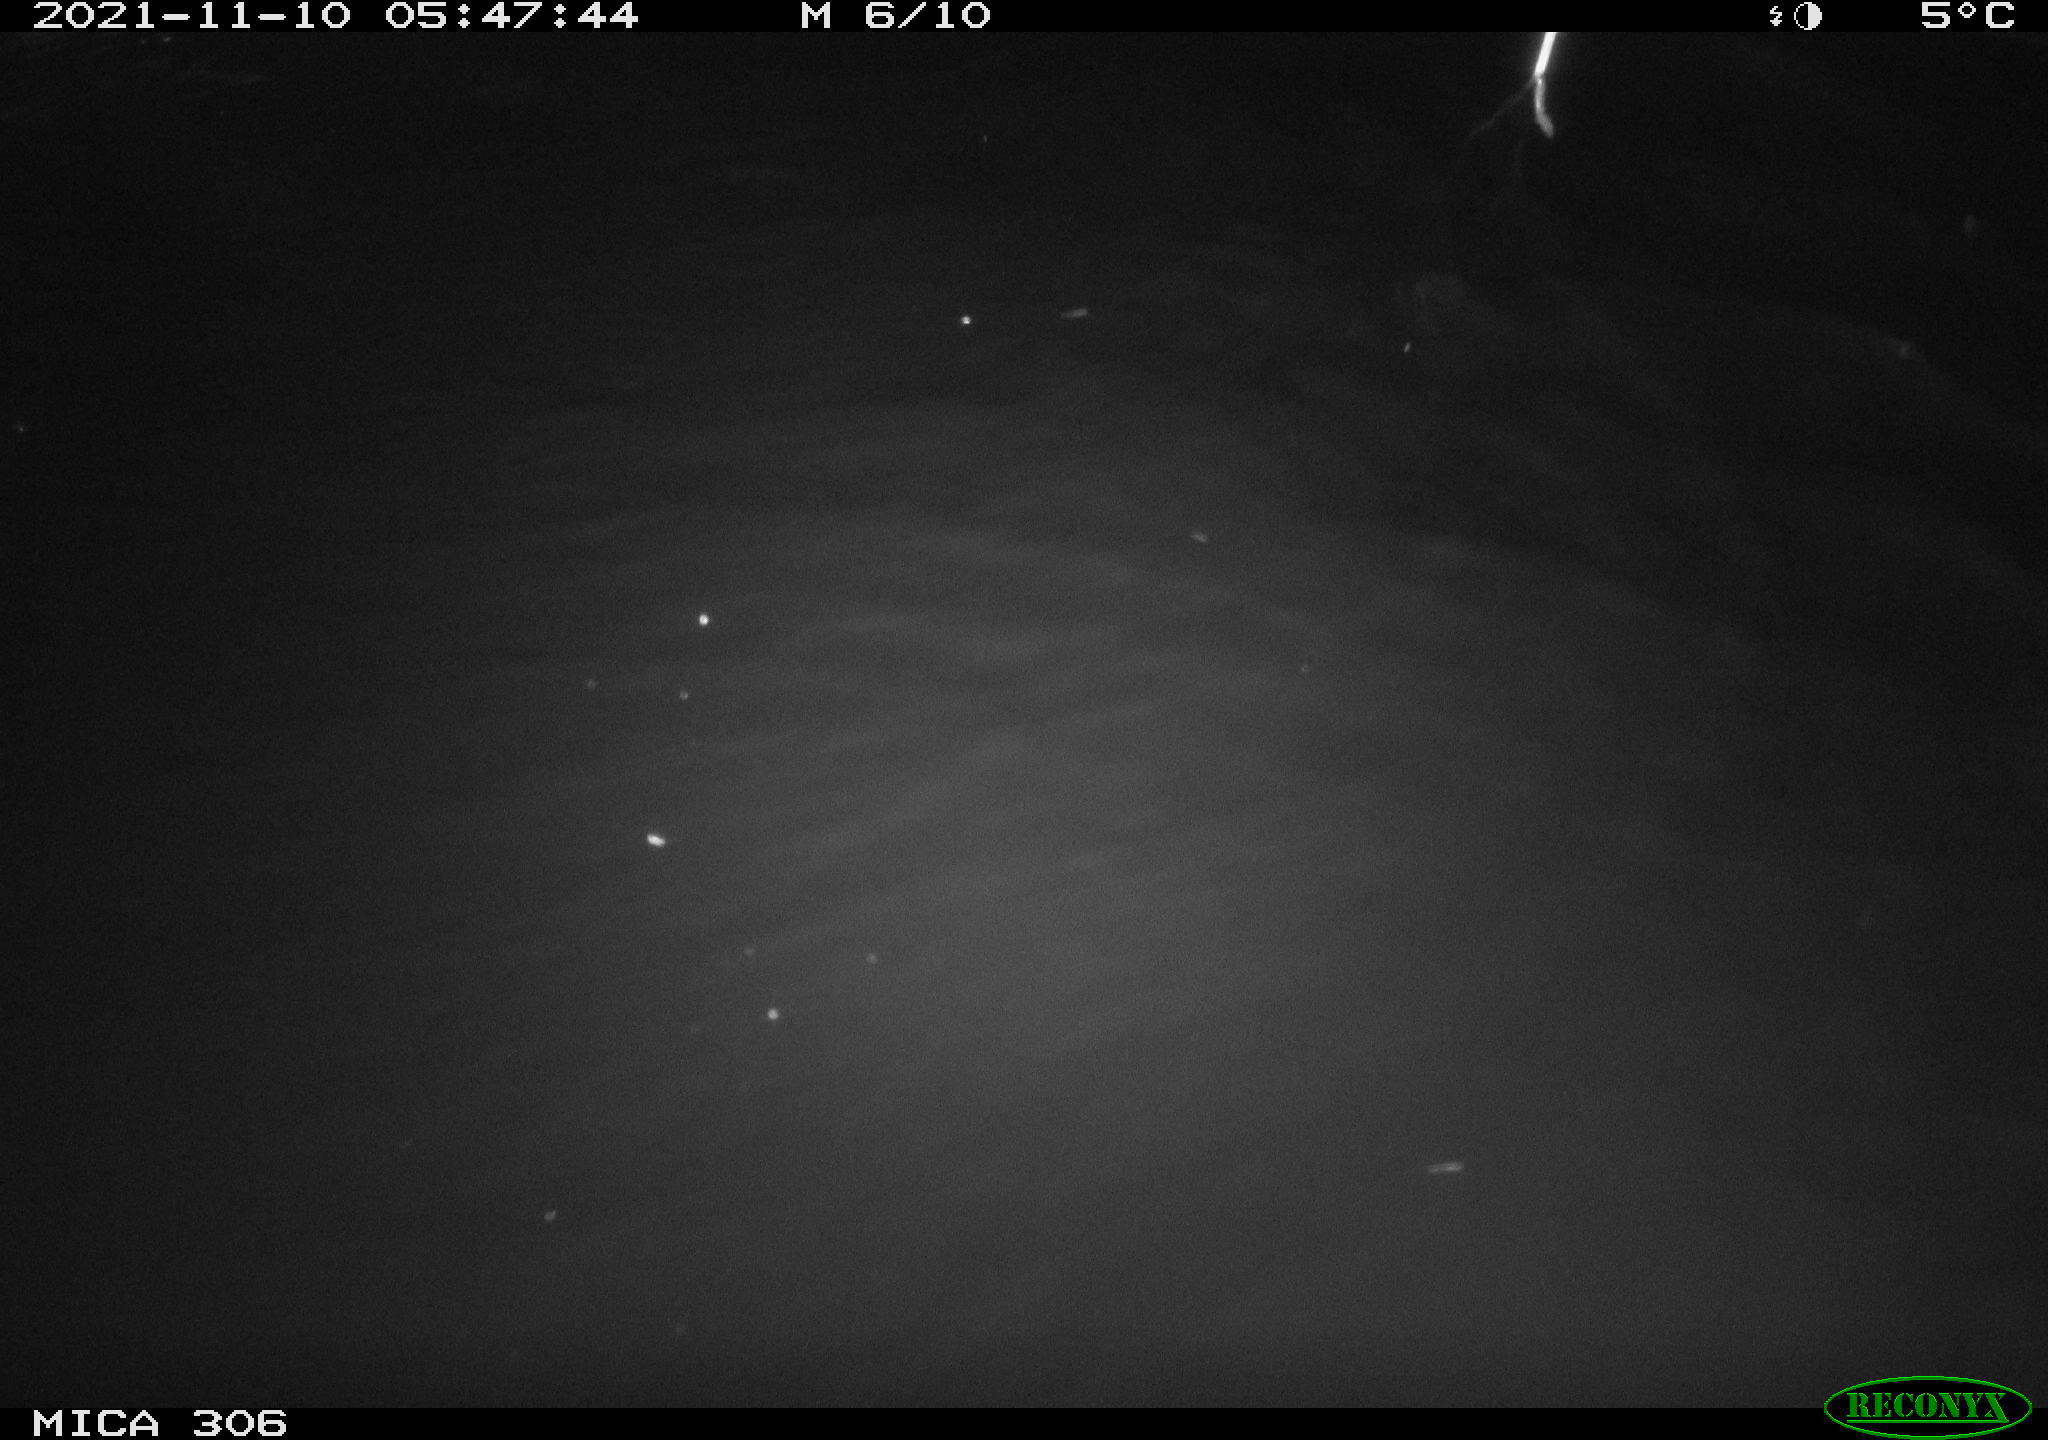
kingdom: Animalia
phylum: Chordata
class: Mammalia
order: Rodentia
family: Cricetidae
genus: Ondatra
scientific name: Ondatra zibethicus
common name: Muskrat
